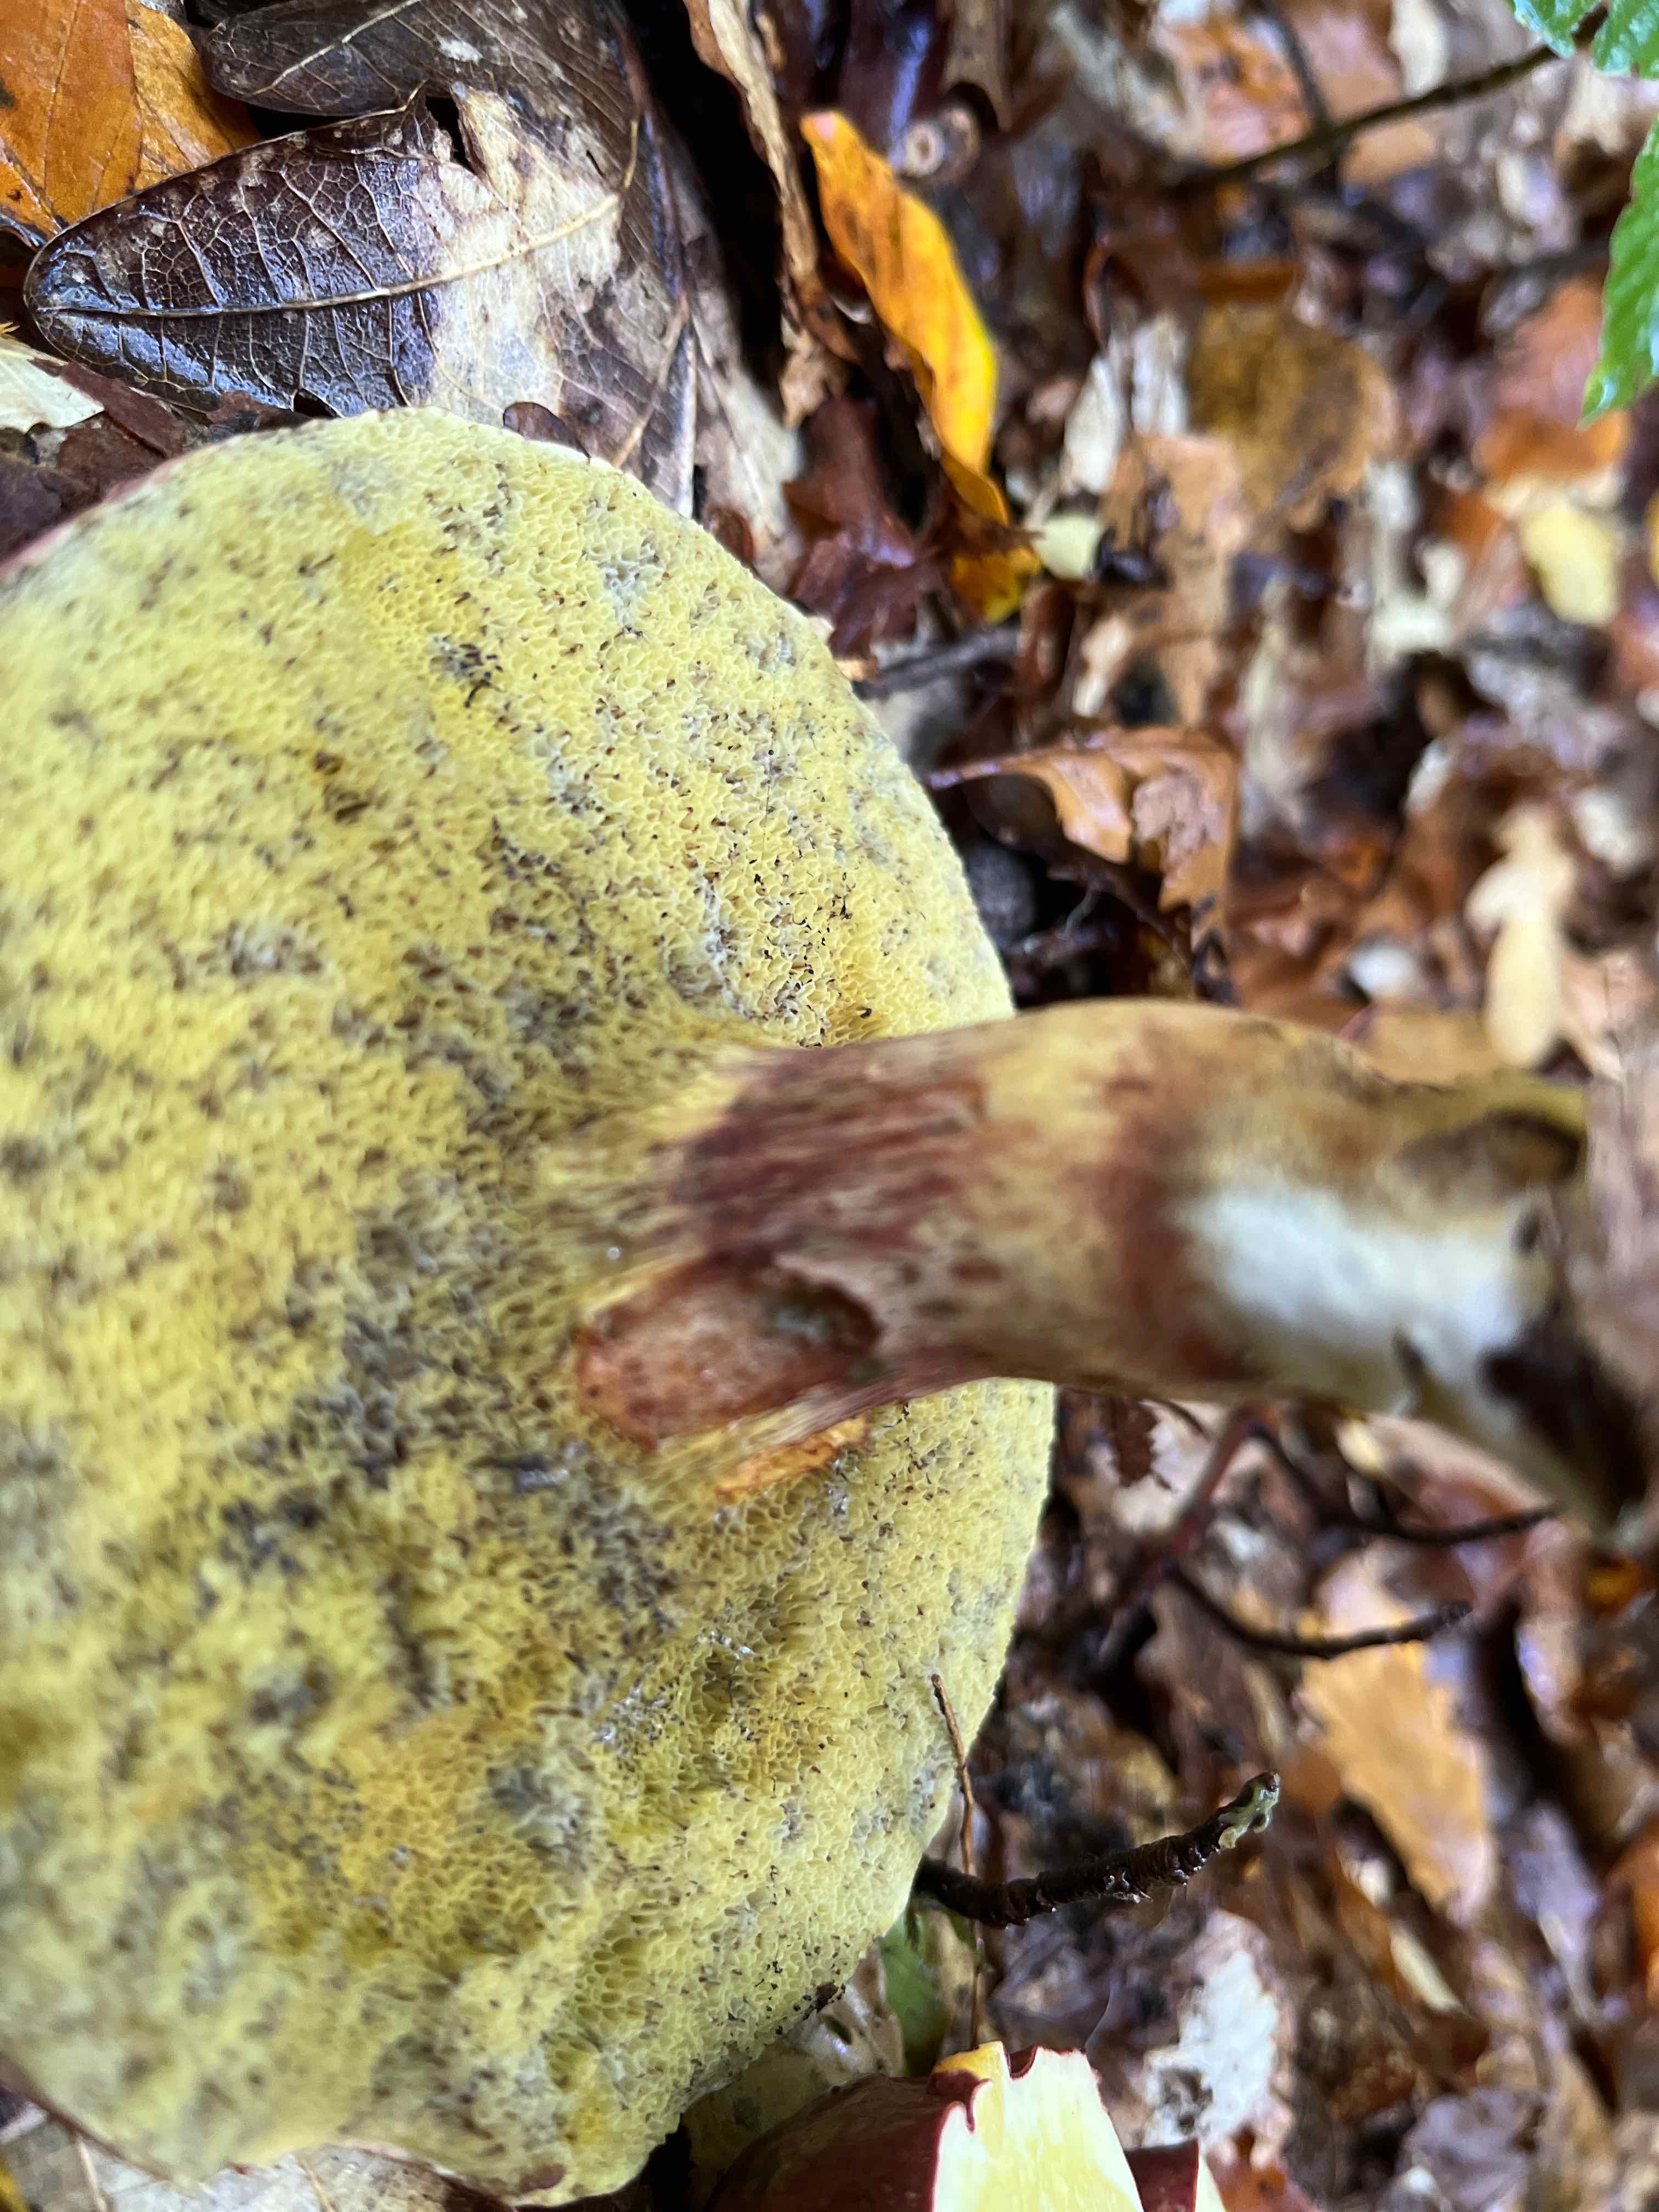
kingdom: Fungi
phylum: Basidiomycota
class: Agaricomycetes
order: Boletales
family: Boletaceae
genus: Xerocomellus
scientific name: Xerocomellus pruinatus
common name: dugget rørhat
